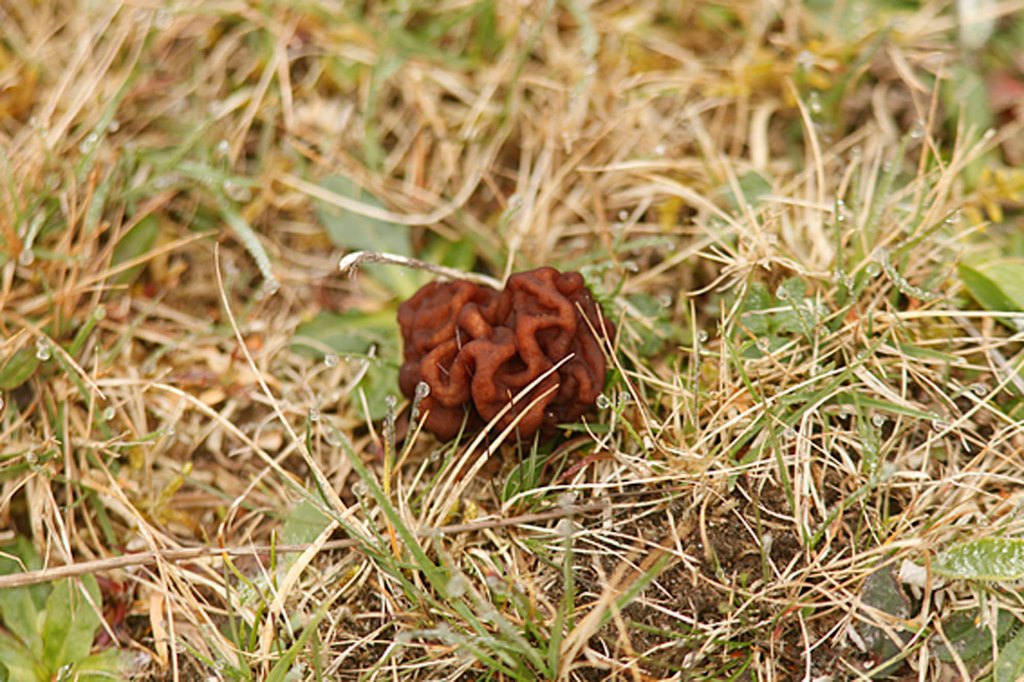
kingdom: Fungi
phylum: Ascomycota
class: Pezizomycetes
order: Pezizales
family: Discinaceae
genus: Gyromitra
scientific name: Gyromitra esculenta
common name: ægte stenmorkel
